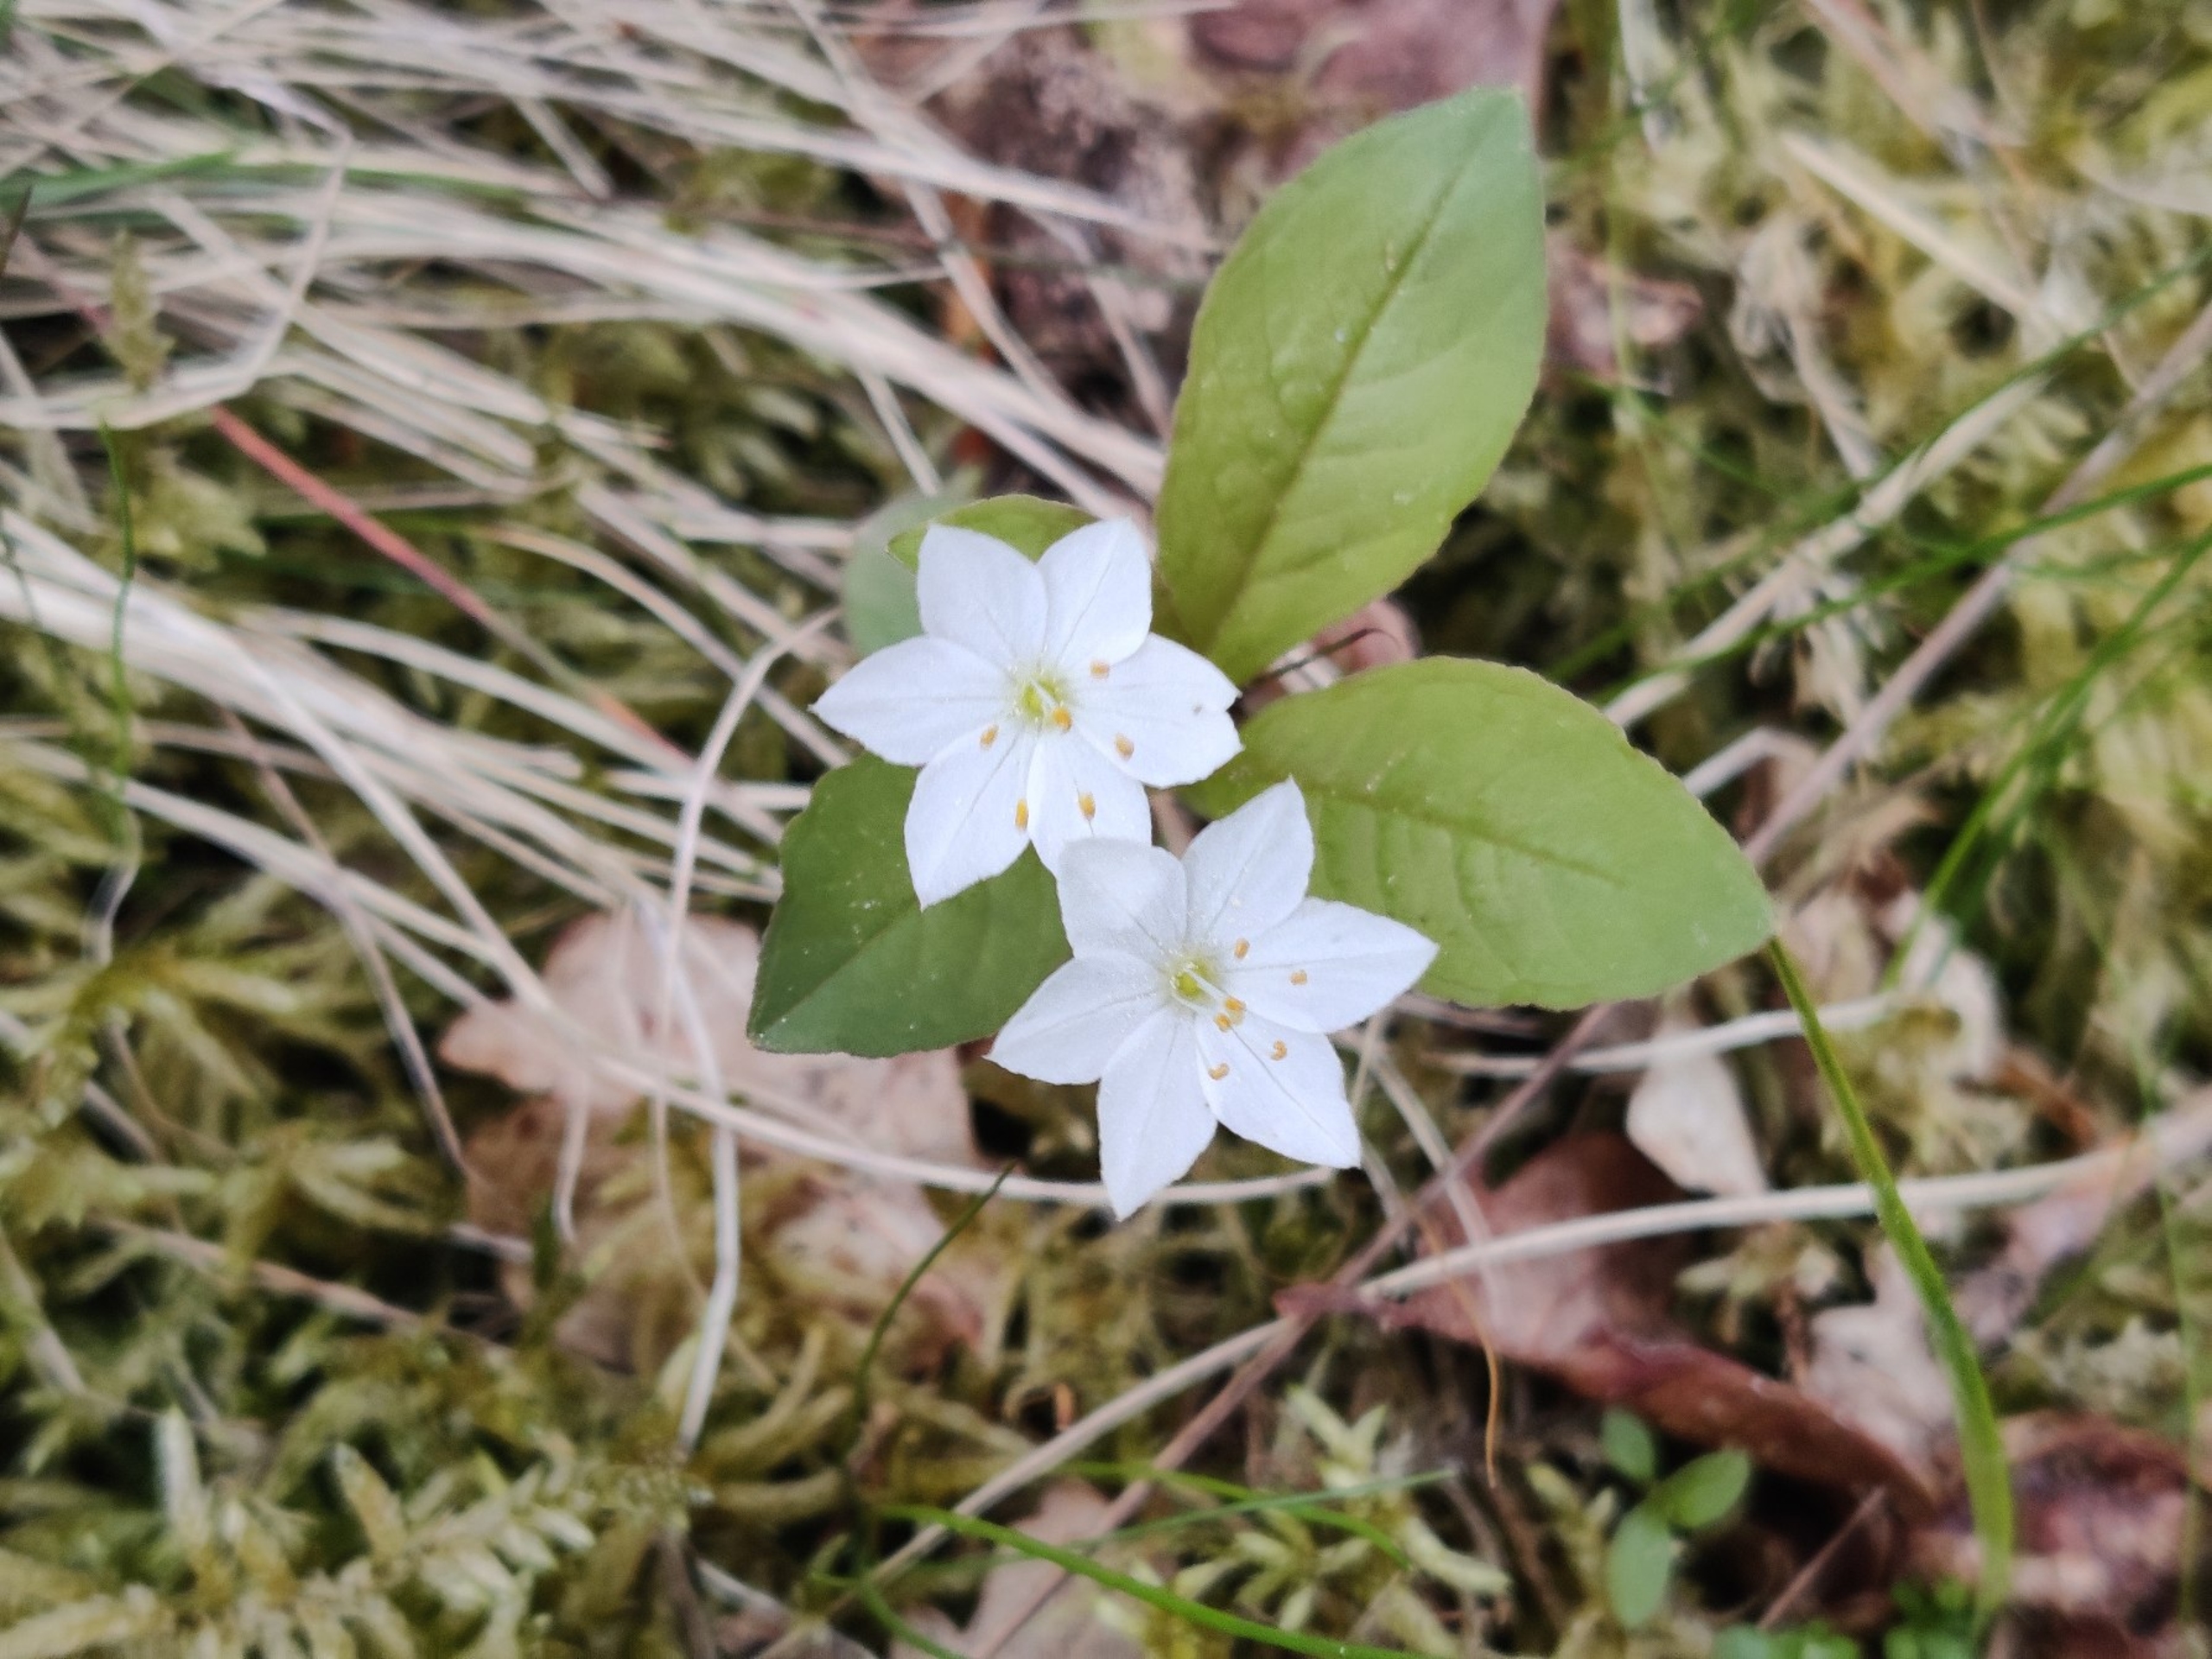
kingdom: Plantae
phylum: Tracheophyta
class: Magnoliopsida
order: Ericales
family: Primulaceae
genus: Lysimachia
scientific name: Lysimachia europaea
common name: Skovstjerne
